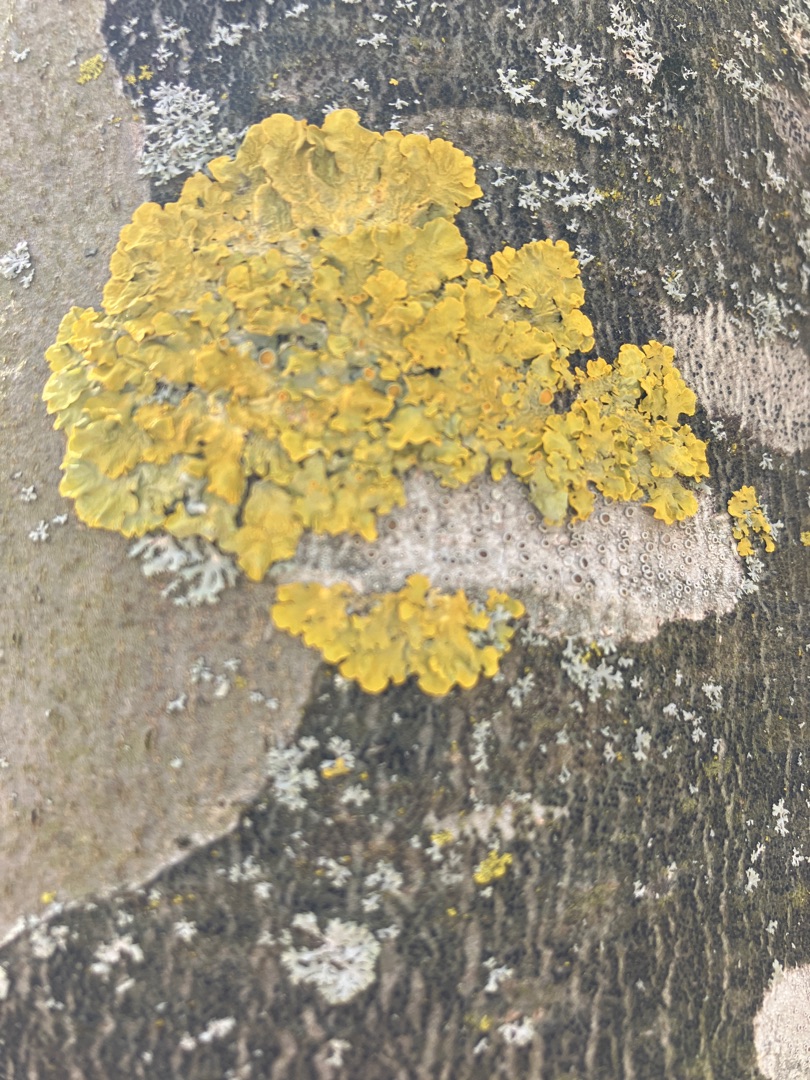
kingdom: Fungi
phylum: Ascomycota
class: Lecanoromycetes
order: Teloschistales
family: Teloschistaceae
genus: Xanthoria
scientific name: Xanthoria parietina
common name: Almindelig væggelav
